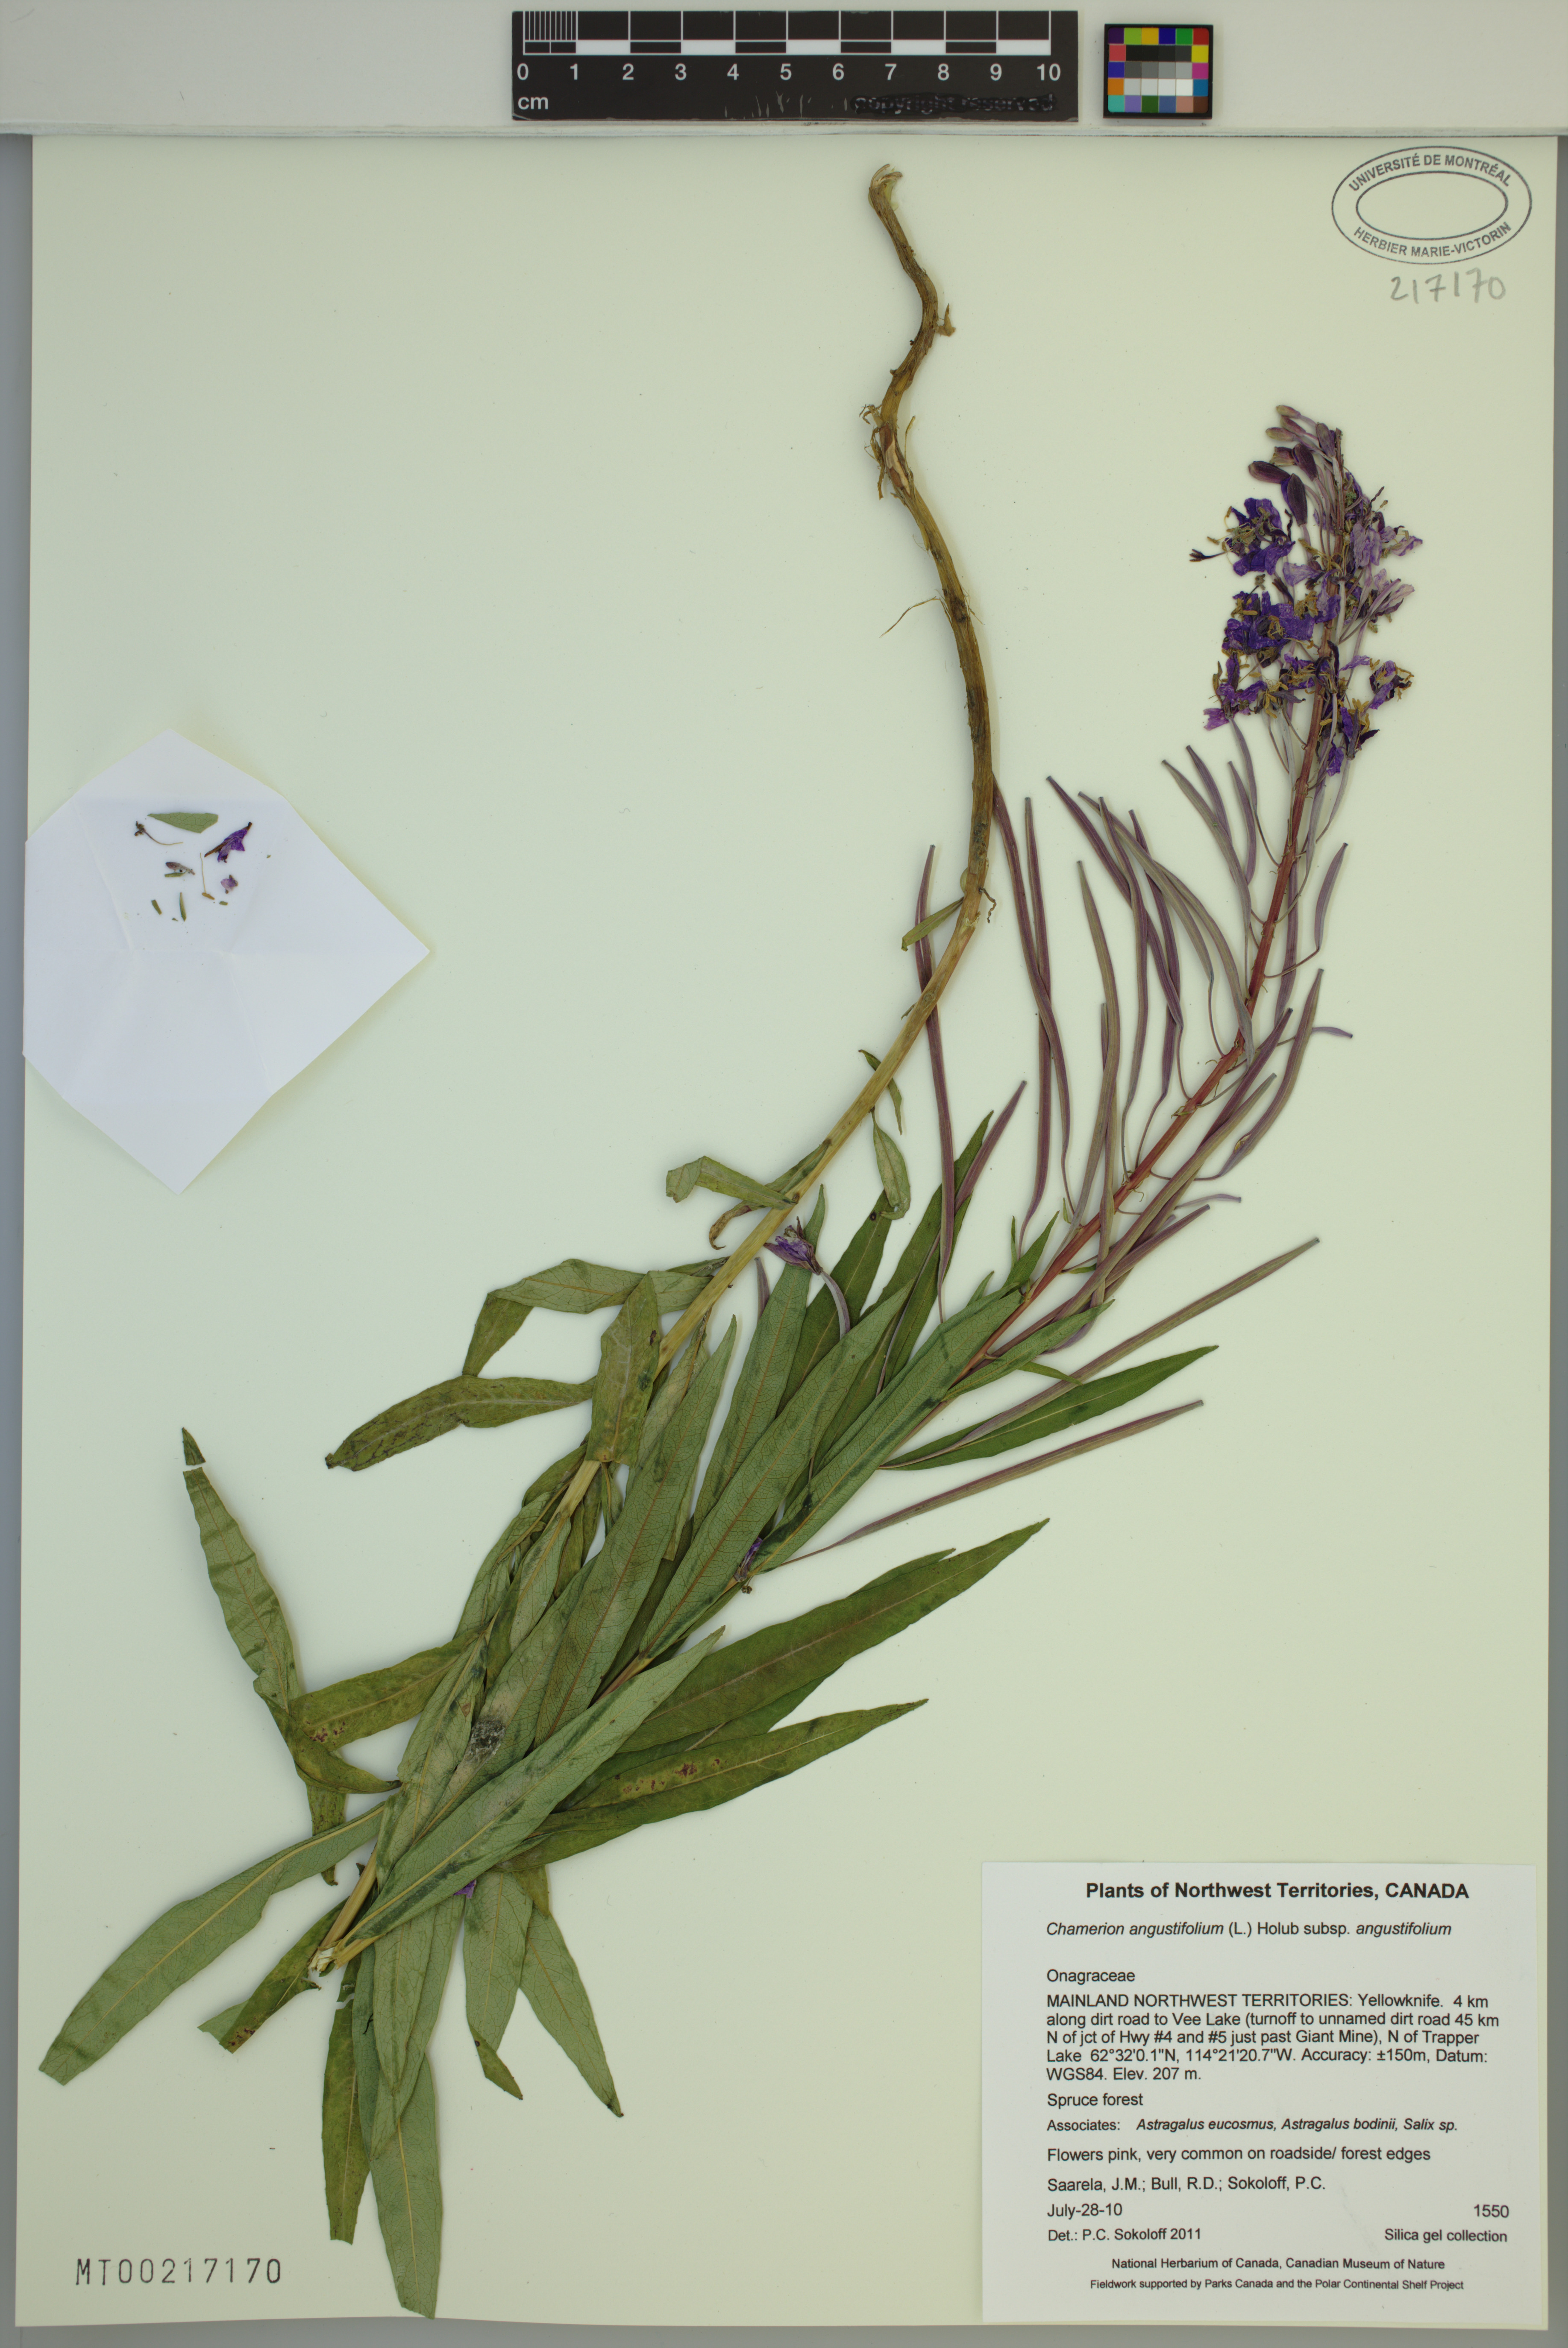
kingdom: Plantae
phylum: Tracheophyta
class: Magnoliopsida
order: Myrtales
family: Onagraceae
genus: Chamaenerion
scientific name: Chamaenerion angustifolium
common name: Fireweed
